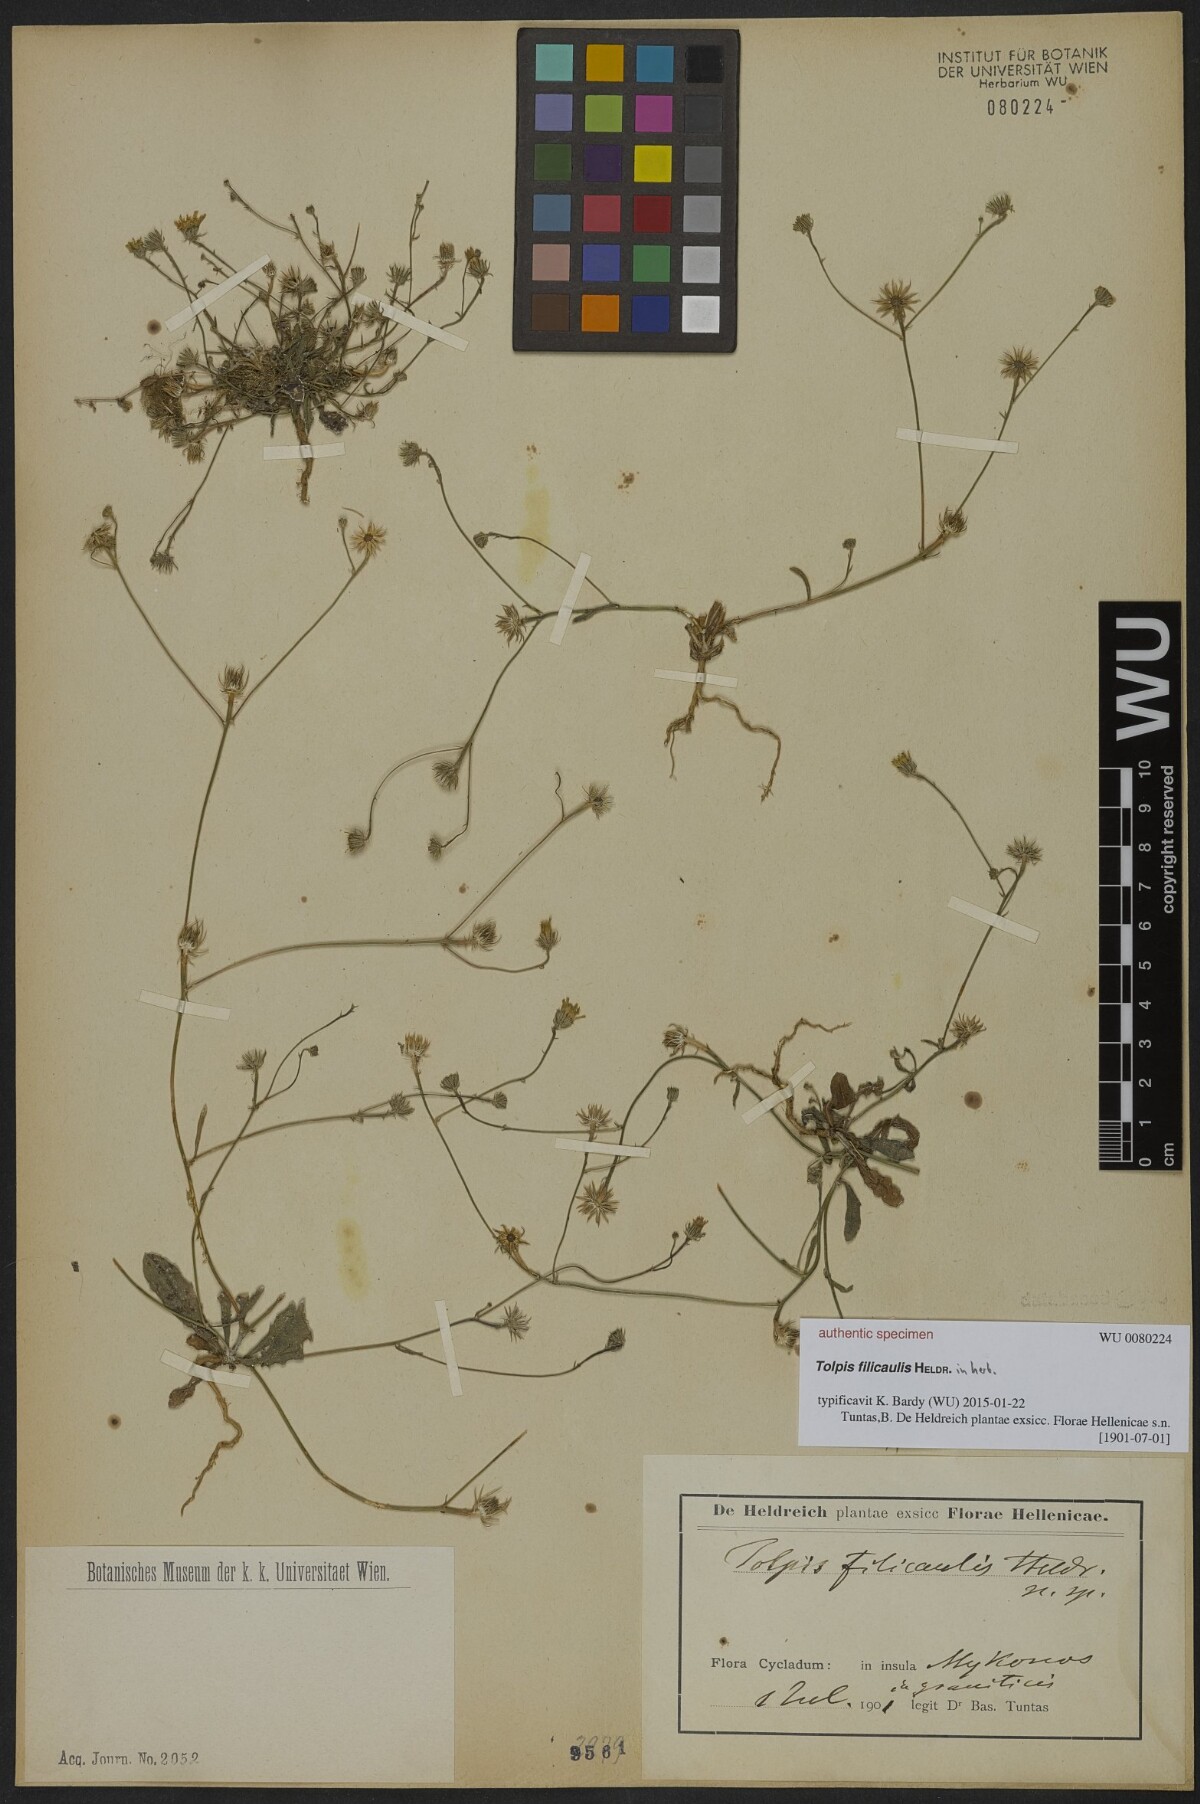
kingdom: Plantae
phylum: Tracheophyta
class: Magnoliopsida
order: Asterales
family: Asteraceae
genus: Tolpis
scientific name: Tolpis
